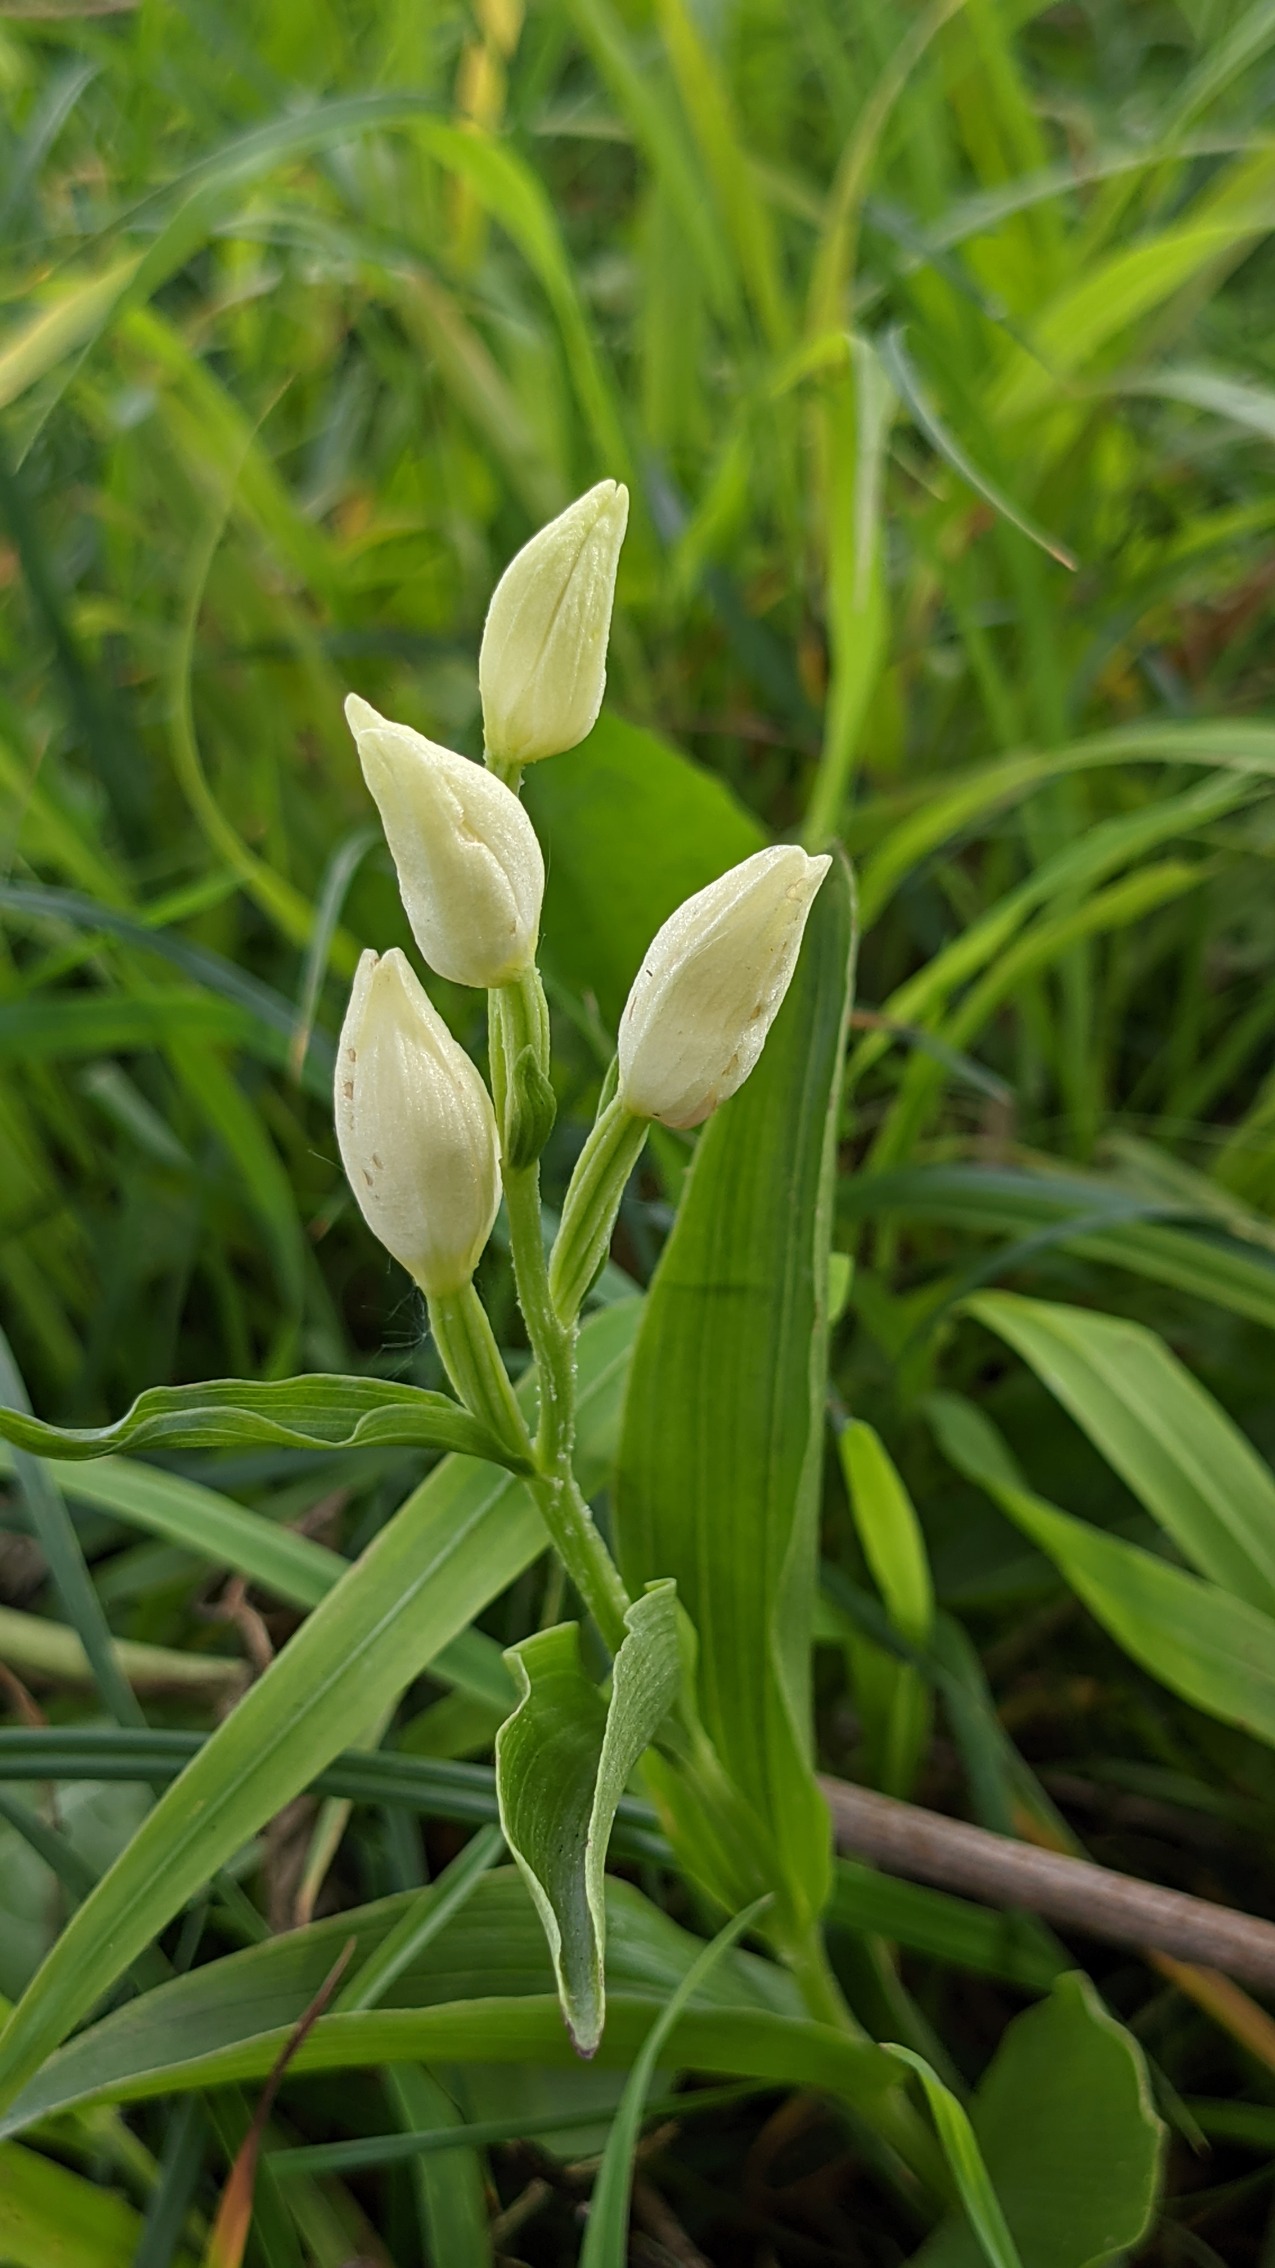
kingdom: Plantae
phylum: Tracheophyta
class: Liliopsida
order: Asparagales
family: Orchidaceae
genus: Cephalanthera
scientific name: Cephalanthera damasonium
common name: Hvidgul skovlilje
